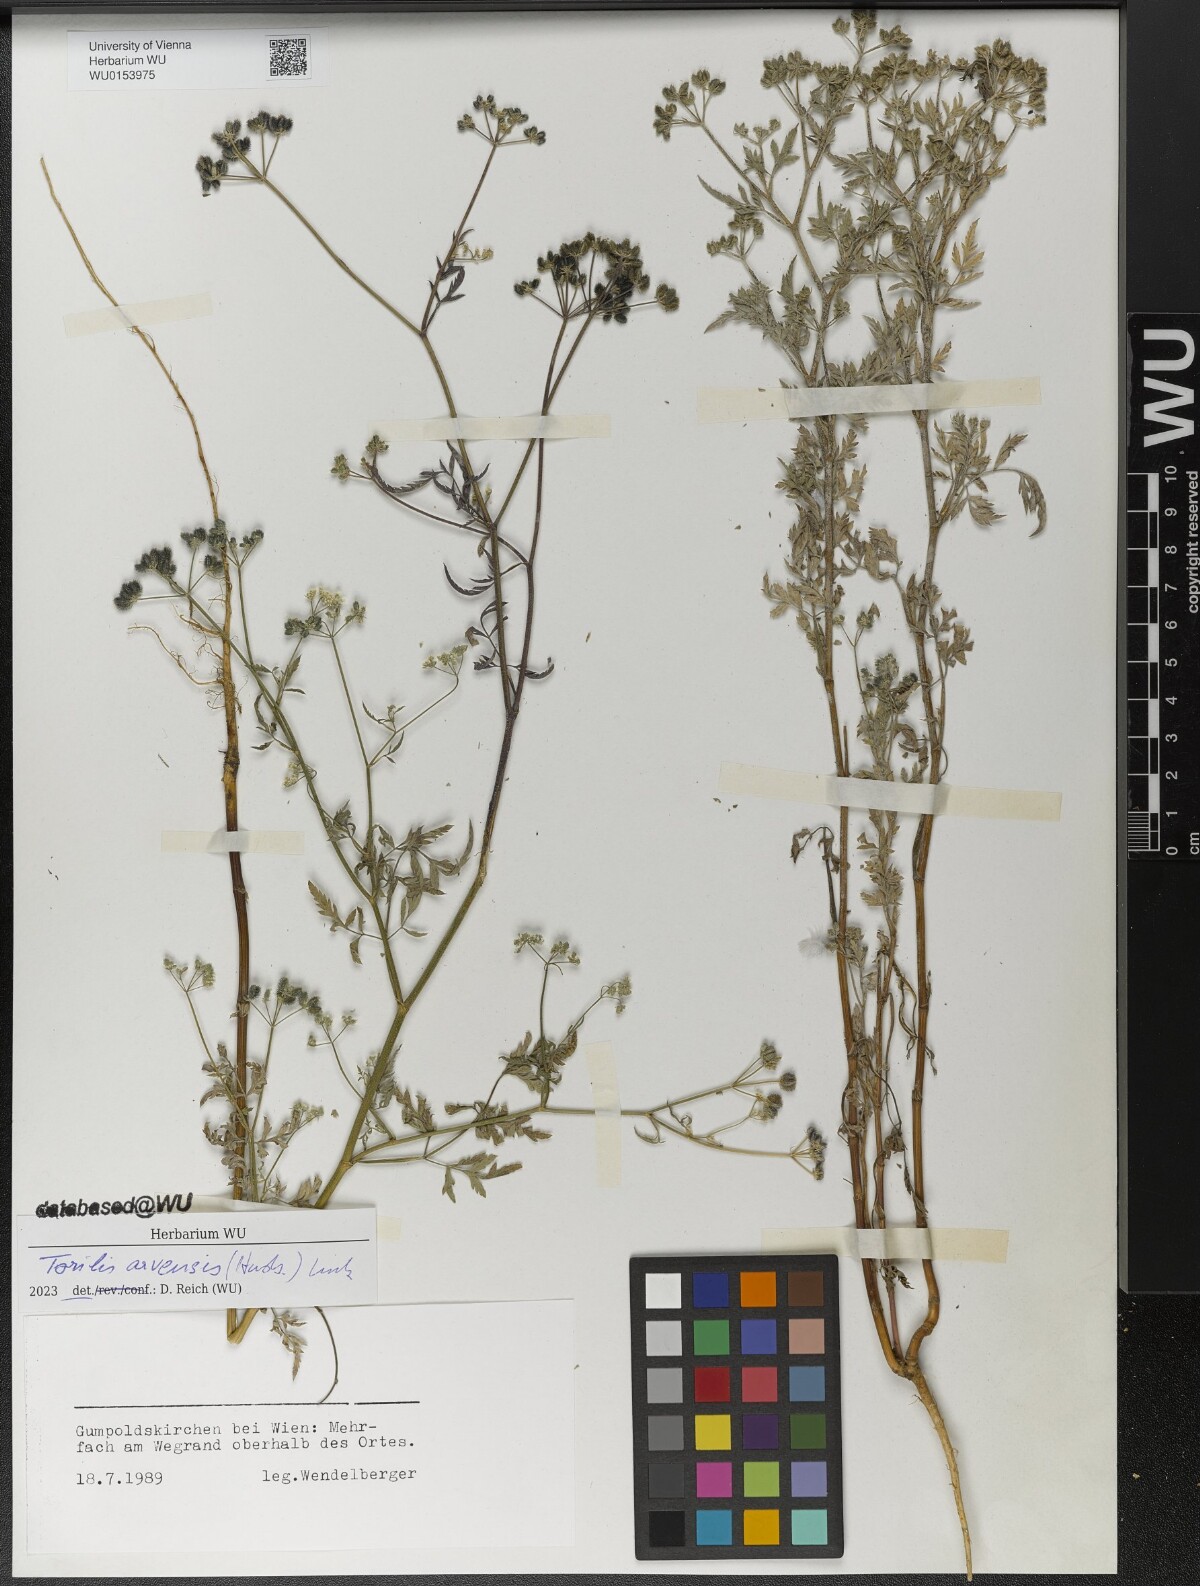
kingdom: Plantae
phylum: Tracheophyta
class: Magnoliopsida
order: Apiales
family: Apiaceae
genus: Torilis
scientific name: Torilis arvensis
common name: Spreading hedge-parsley
